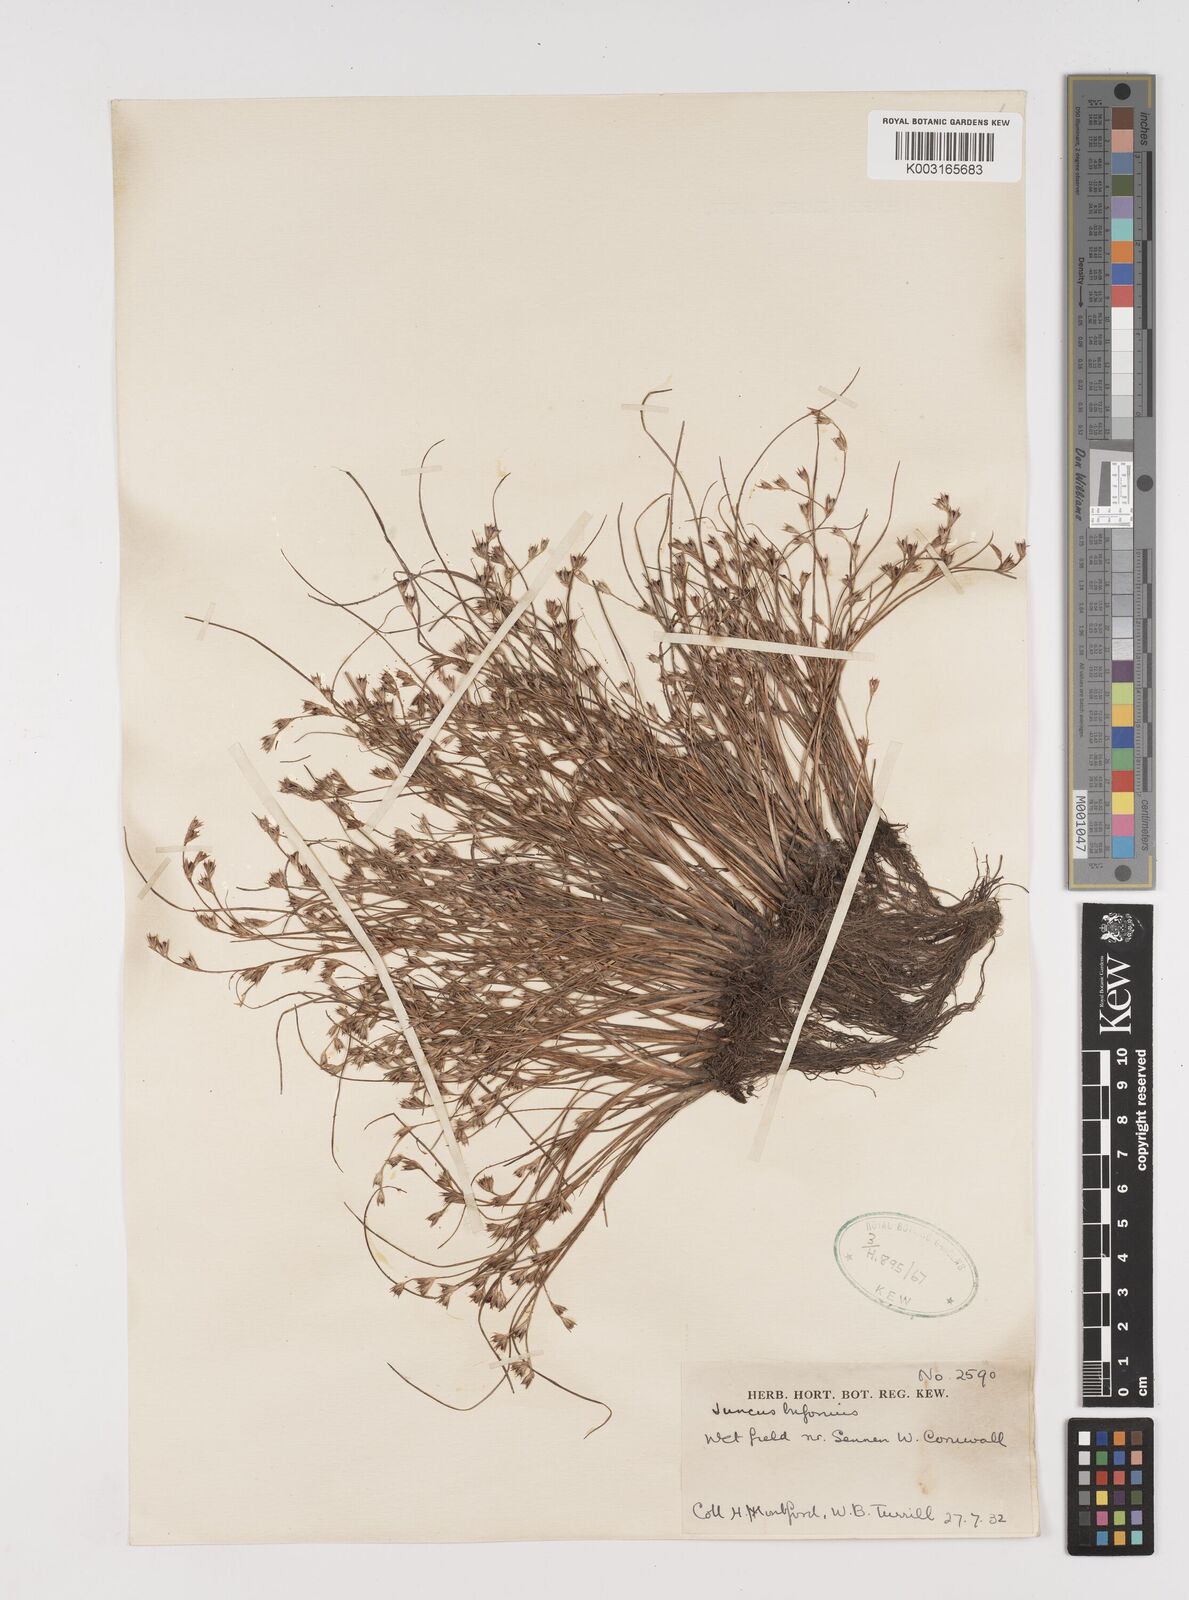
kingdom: Plantae
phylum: Tracheophyta
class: Liliopsida
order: Poales
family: Juncaceae
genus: Juncus
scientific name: Juncus bufonius
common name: Toad rush
